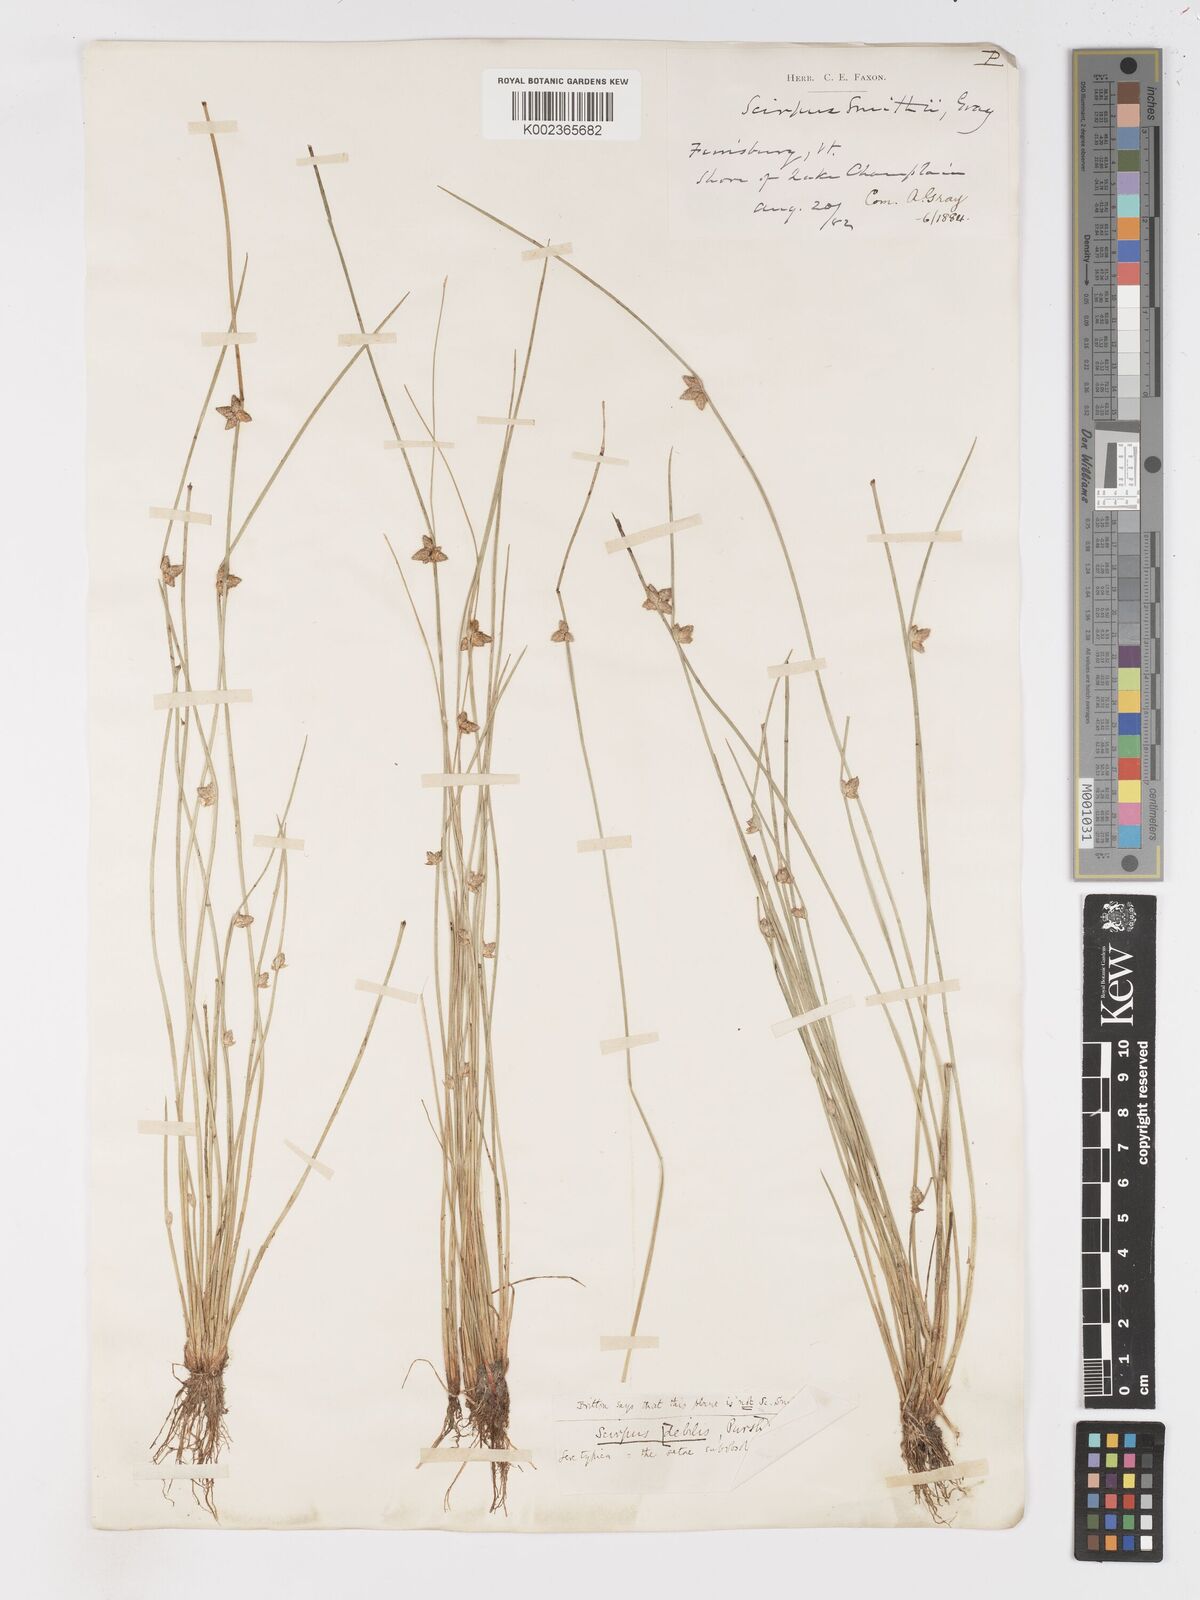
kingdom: Plantae
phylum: Tracheophyta
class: Liliopsida
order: Poales
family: Cyperaceae
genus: Schoenoplectiella
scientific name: Schoenoplectiella purshiana
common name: Weak-stalked bulrush
